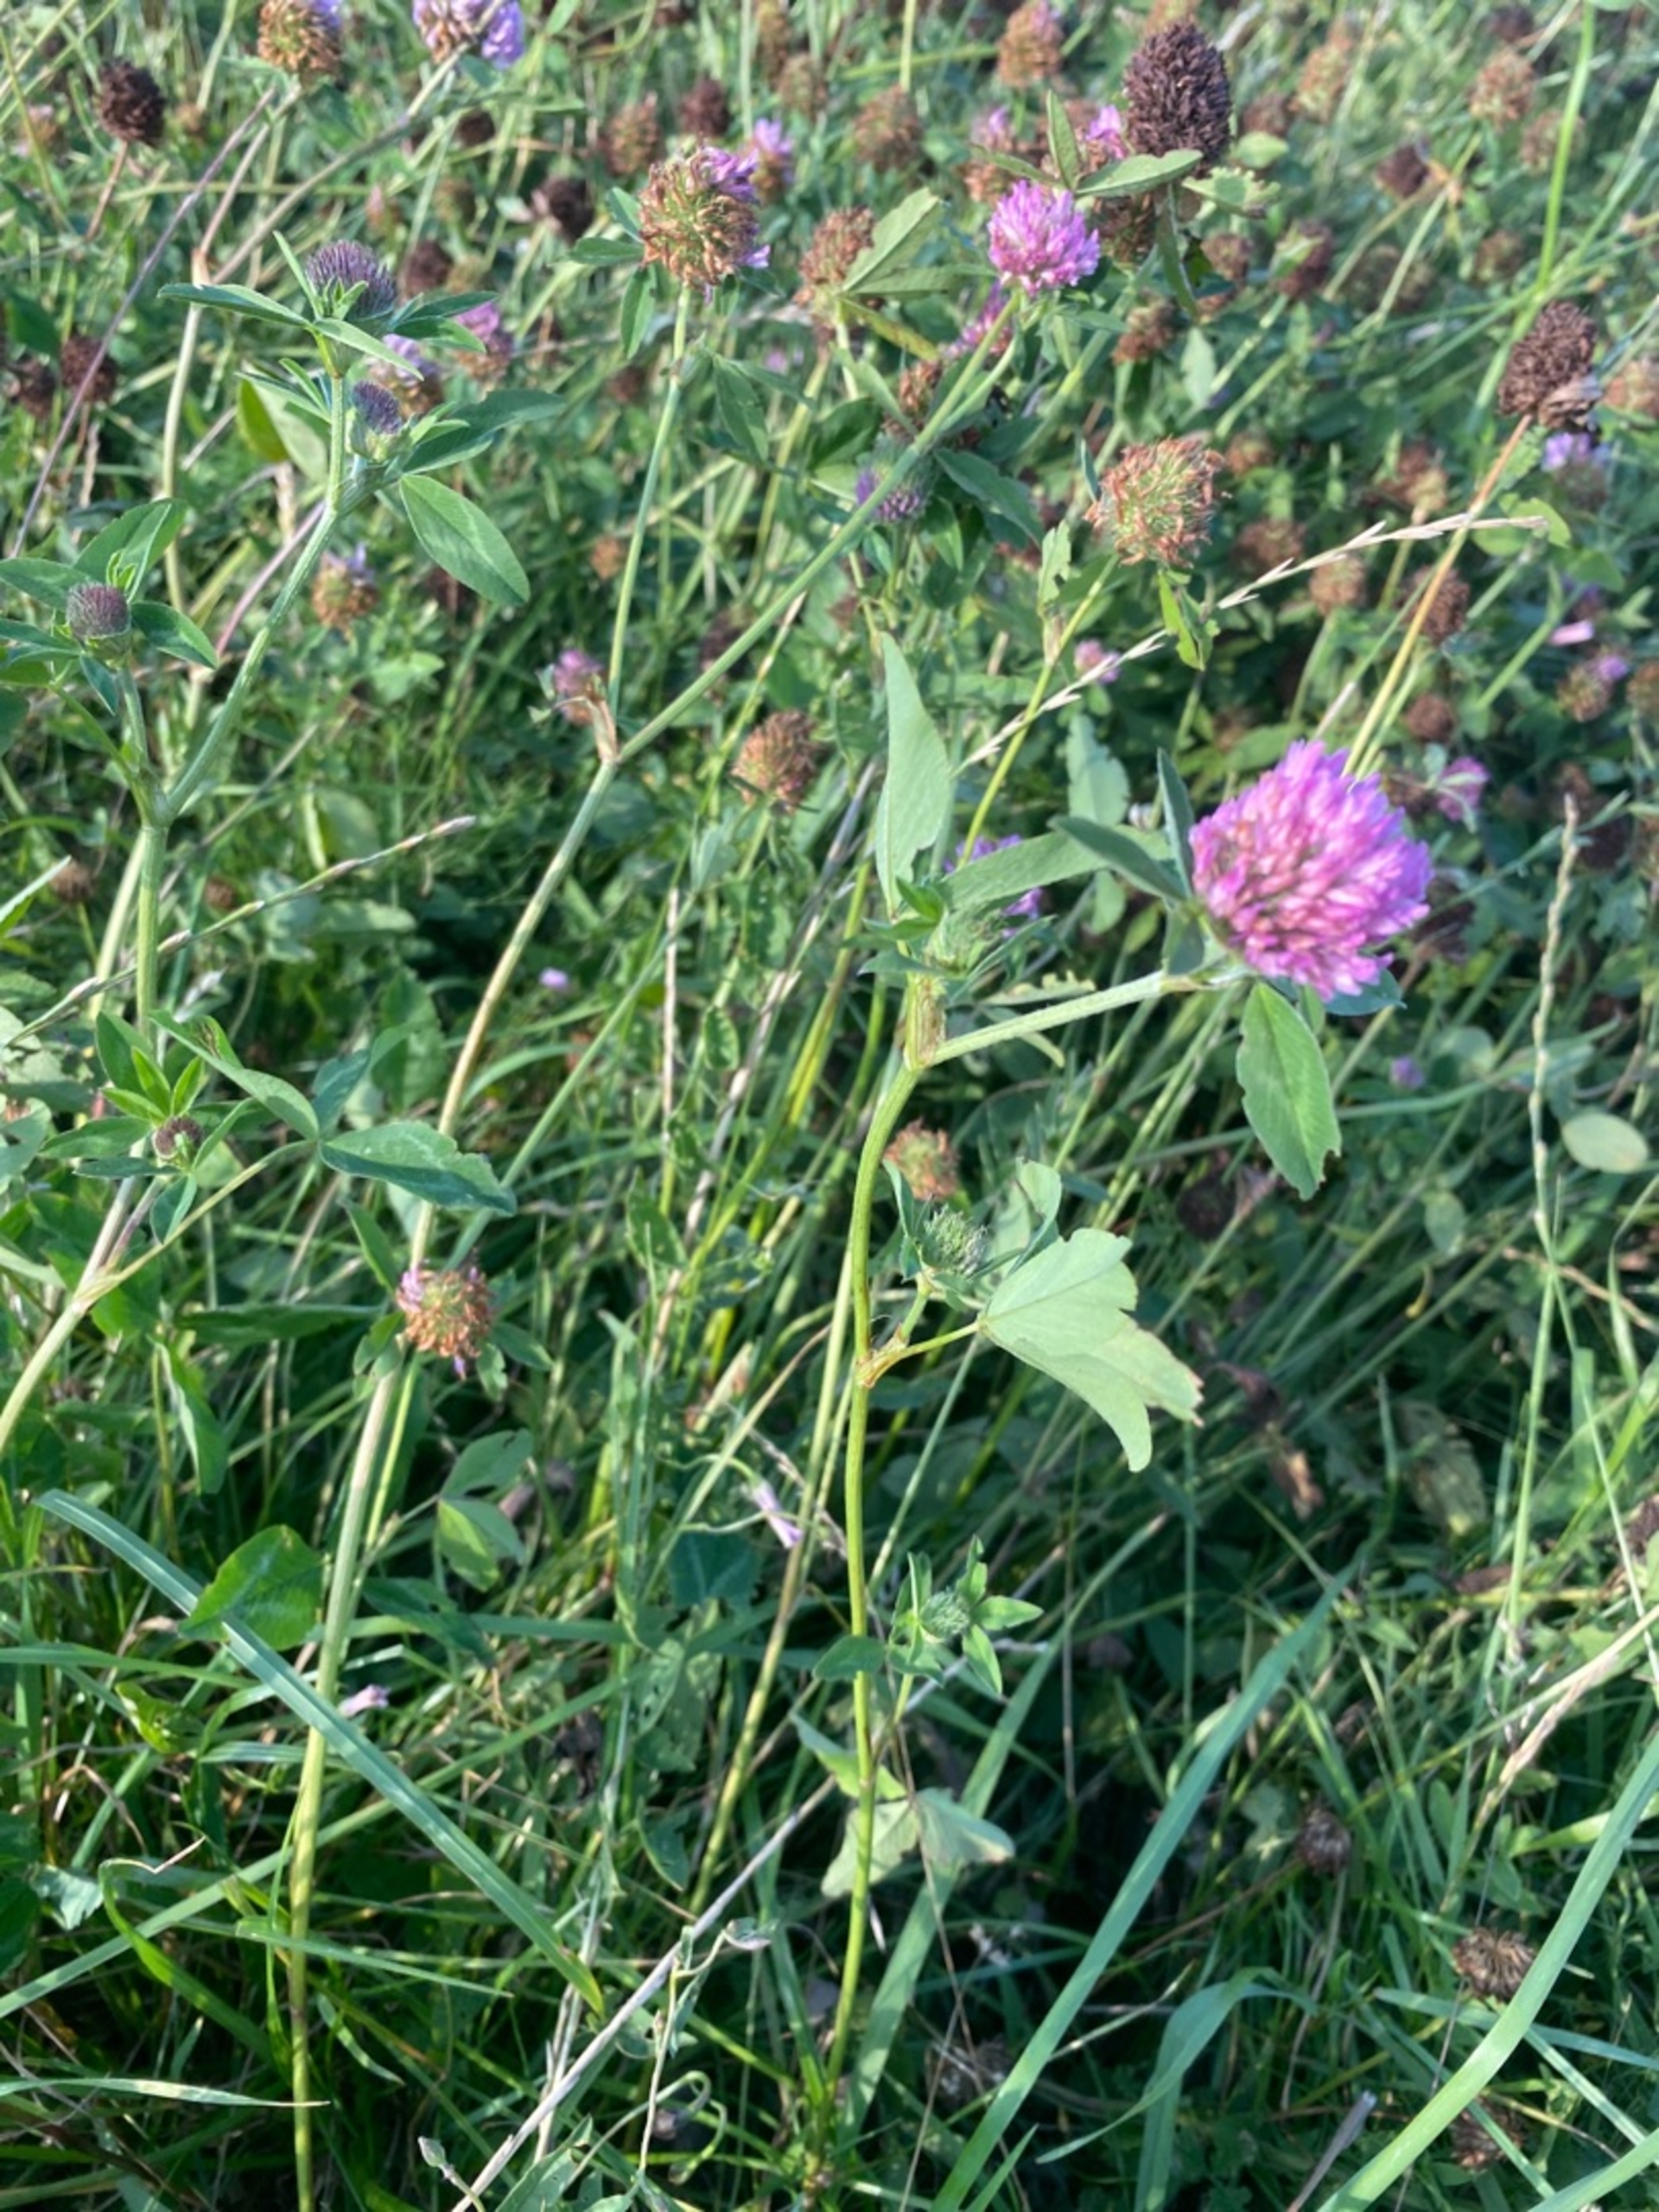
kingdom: Plantae
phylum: Tracheophyta
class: Magnoliopsida
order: Fabales
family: Fabaceae
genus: Trifolium
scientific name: Trifolium pratense
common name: Rød-kløver
